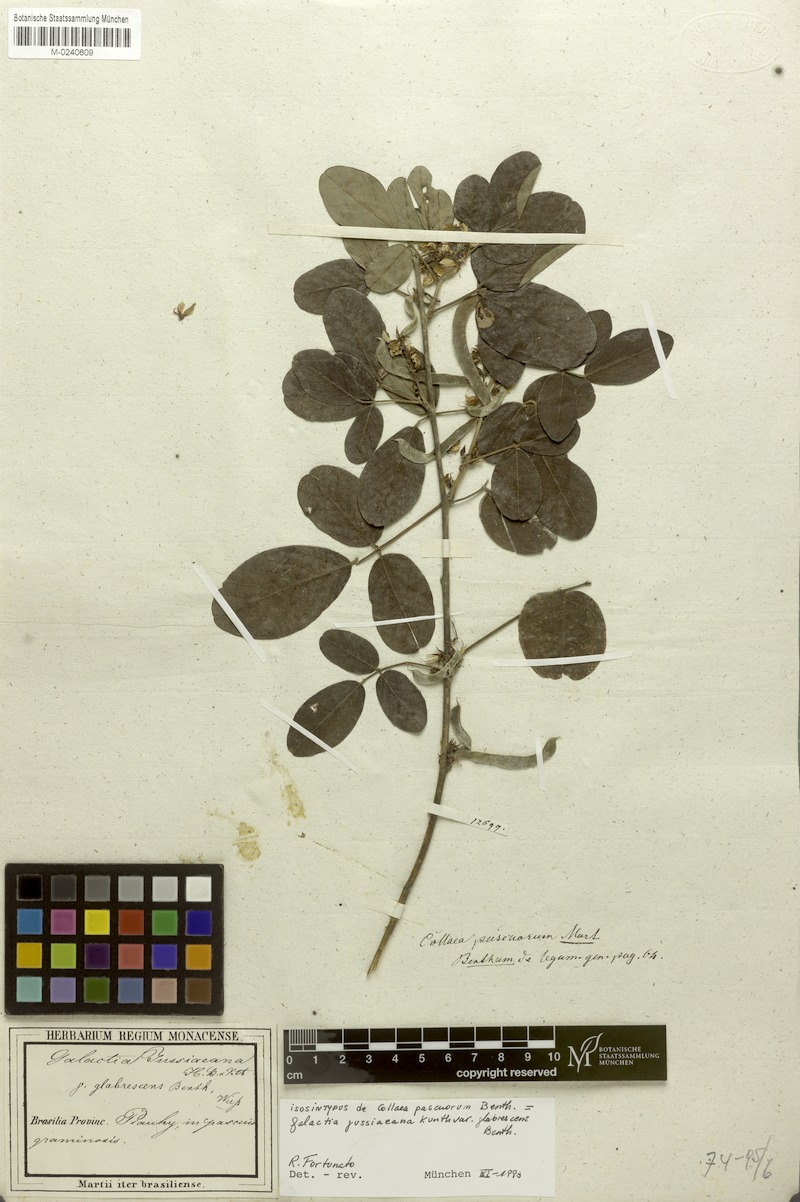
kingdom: Plantae
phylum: Tracheophyta
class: Magnoliopsida
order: Fabales
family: Fabaceae
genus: Galactia
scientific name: Galactia jussiaeana
